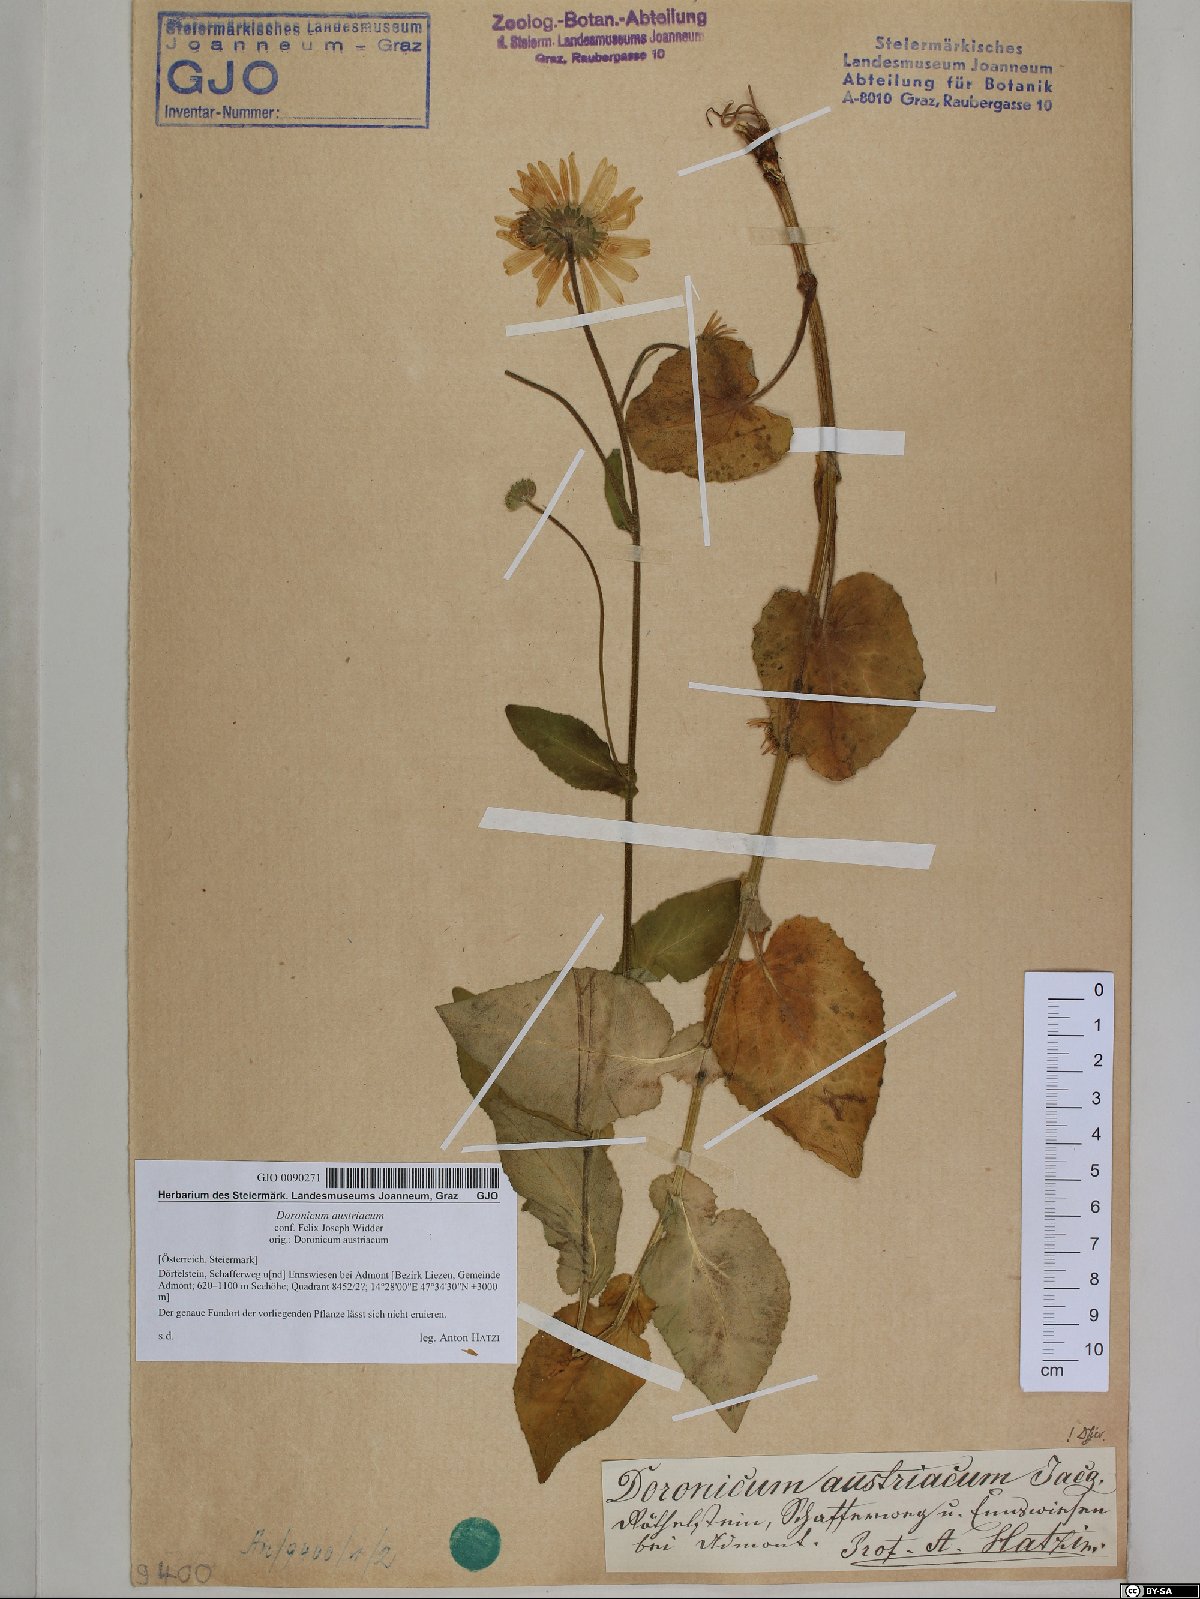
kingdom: Plantae
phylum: Tracheophyta
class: Magnoliopsida
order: Asterales
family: Asteraceae
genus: Doronicum
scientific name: Doronicum austriacum
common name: Austrian leopard's-bane
